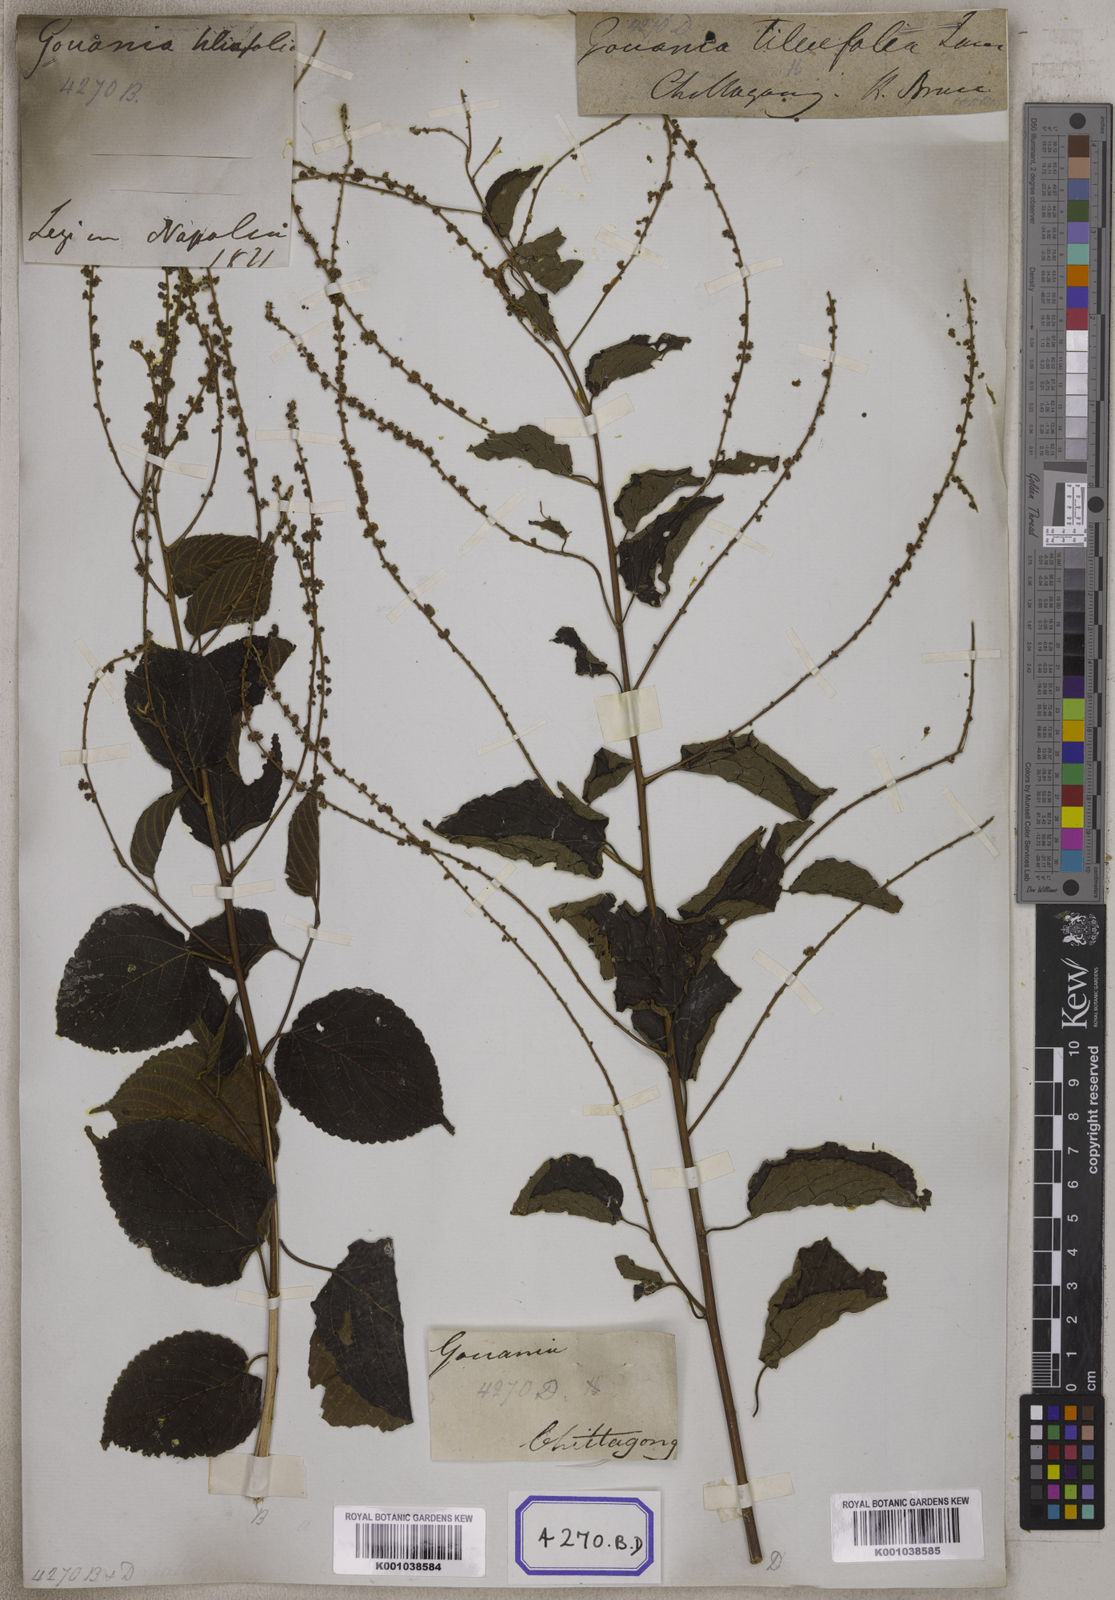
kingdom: Plantae
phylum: Tracheophyta
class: Magnoliopsida
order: Rosales
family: Rhamnaceae
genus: Gouania
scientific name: Gouania leptostachya
